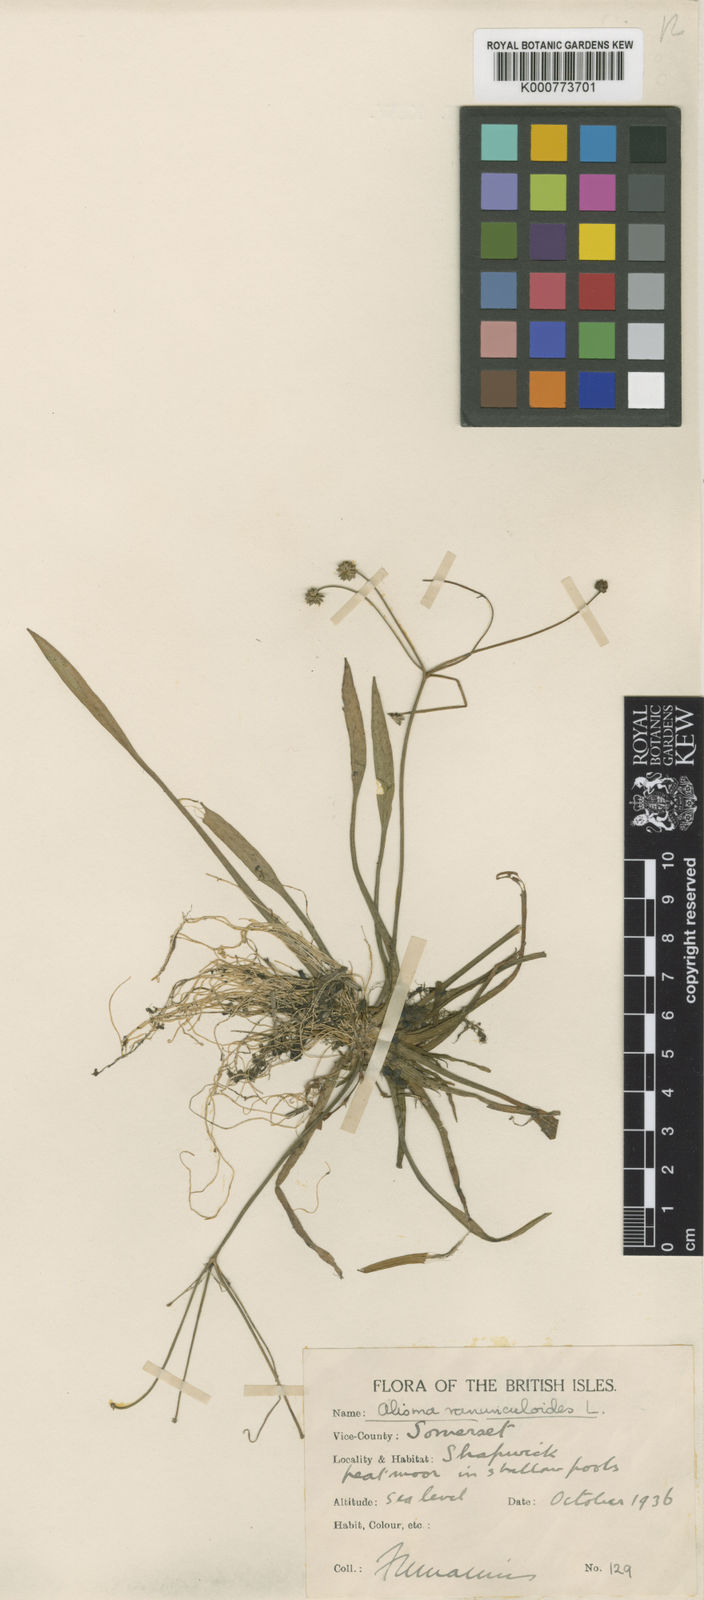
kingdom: Plantae
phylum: Tracheophyta
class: Liliopsida
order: Alismatales
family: Alismataceae
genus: Baldellia
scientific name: Baldellia ranunculoides
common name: Lesser water-plantain
